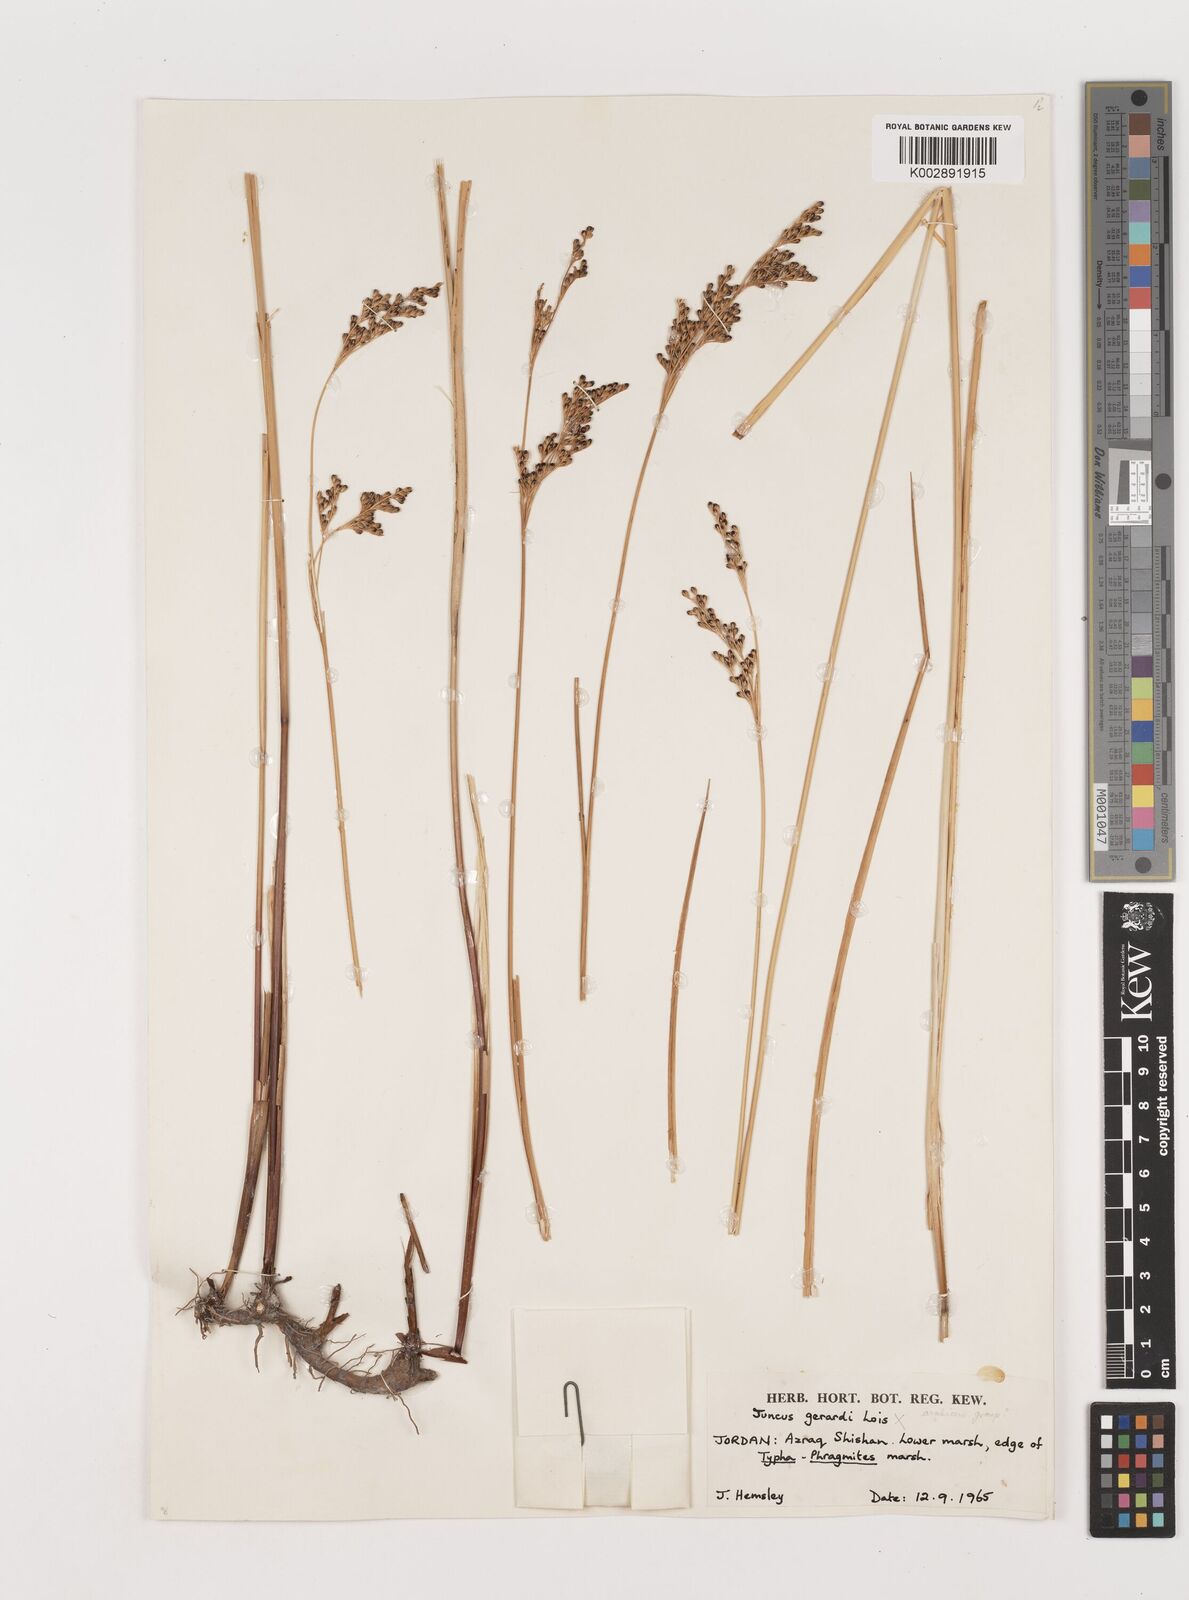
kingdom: Plantae
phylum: Tracheophyta
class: Liliopsida
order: Poales
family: Juncaceae
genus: Juncus
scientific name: Juncus
